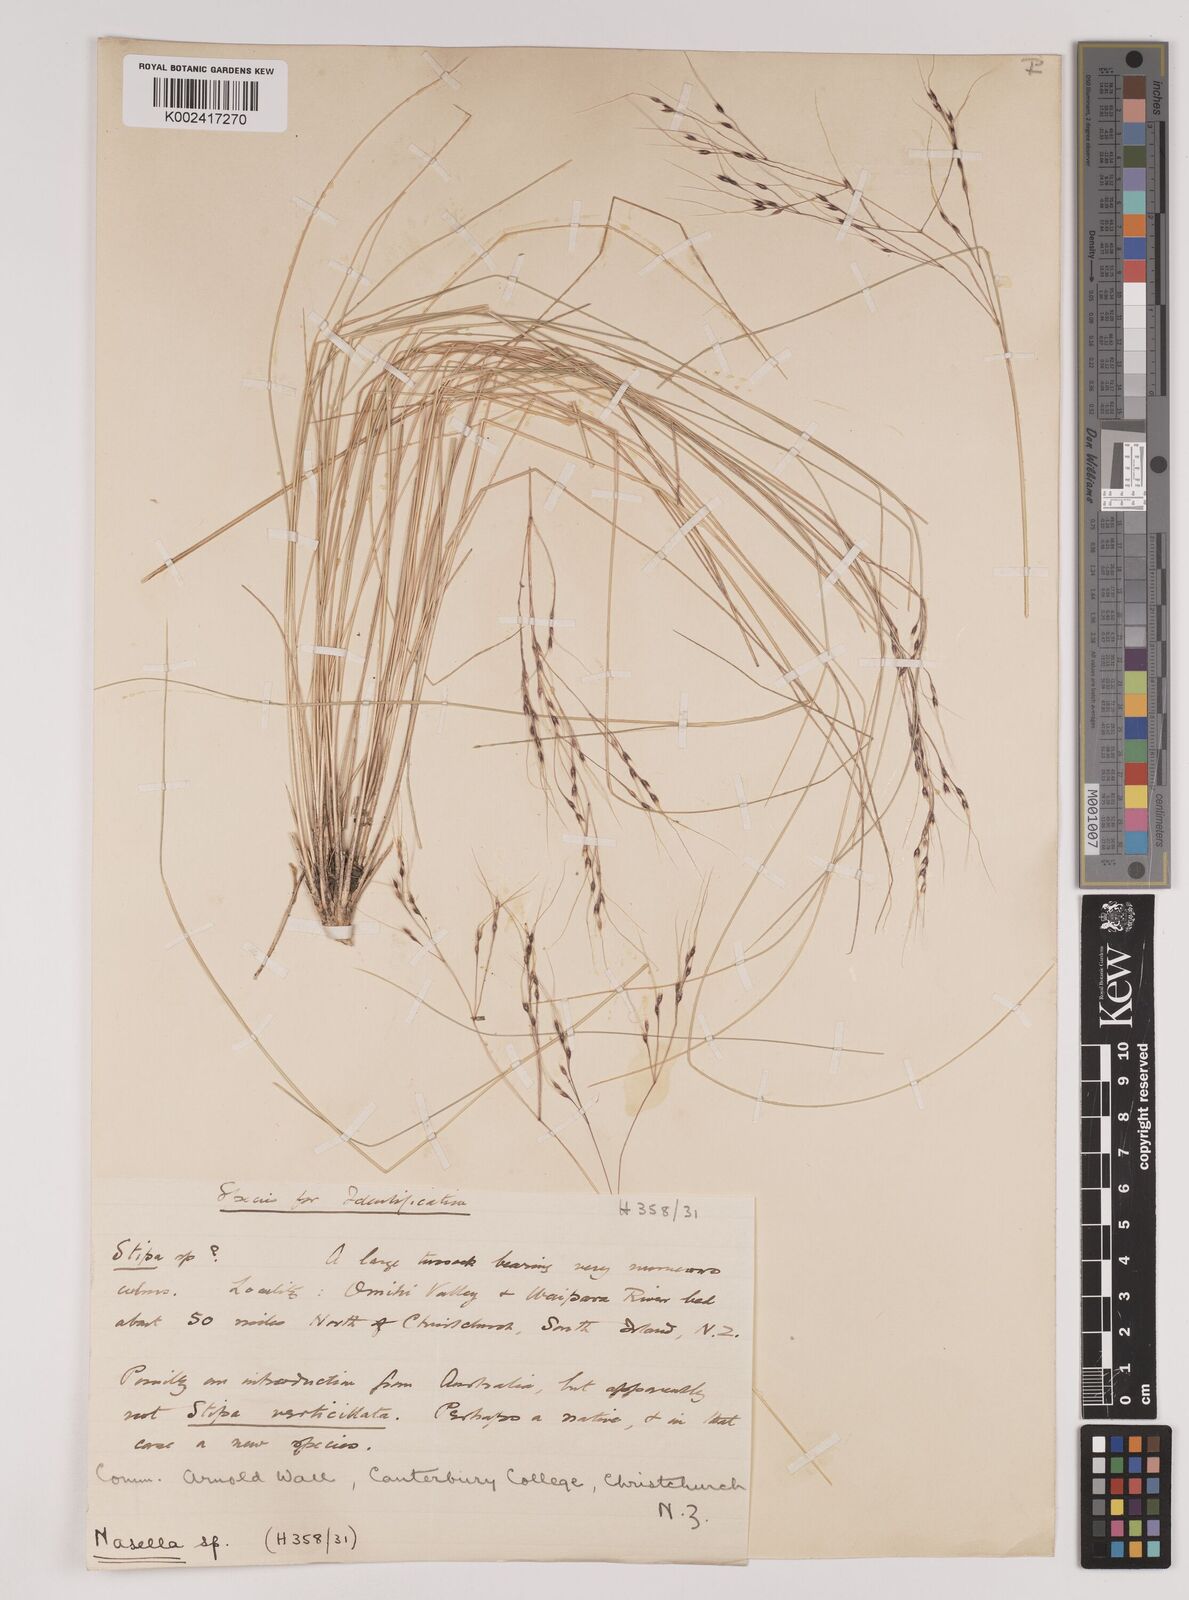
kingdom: Plantae
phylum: Tracheophyta
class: Liliopsida
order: Poales
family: Poaceae
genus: Nassella
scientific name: Nassella trichotoma
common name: Serrated tussock grass
